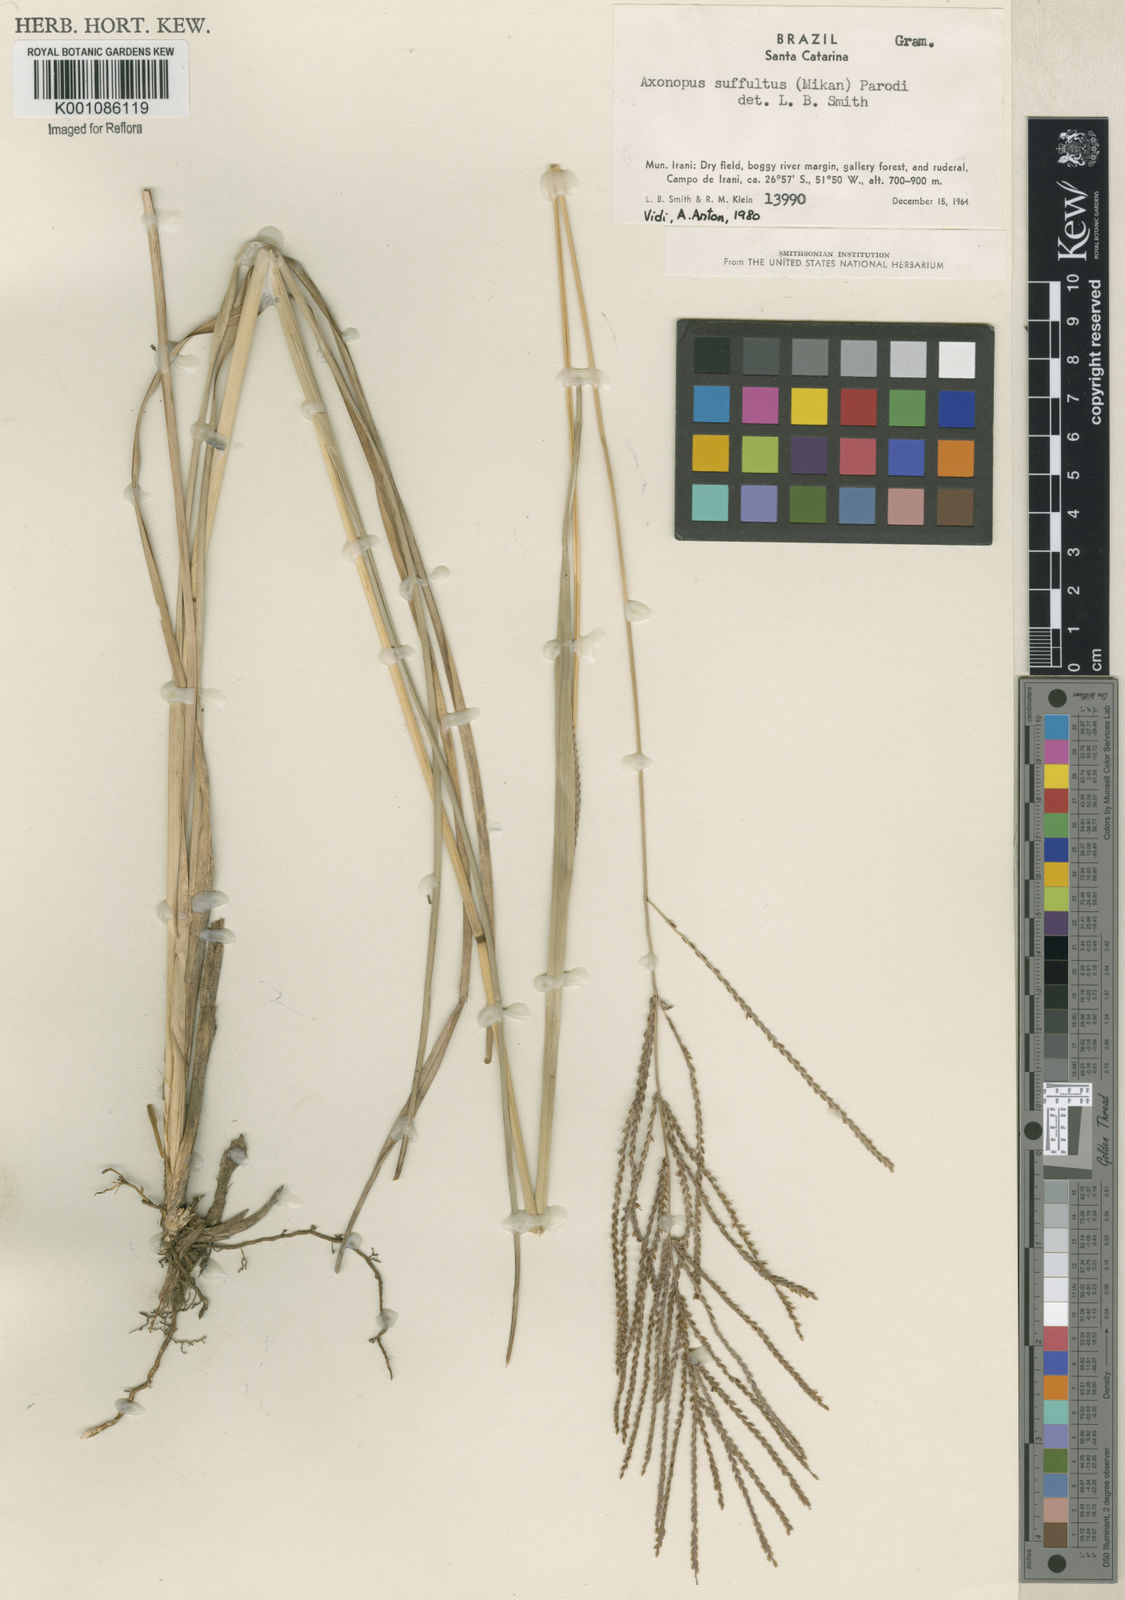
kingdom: Plantae
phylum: Tracheophyta
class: Liliopsida
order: Poales
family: Poaceae
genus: Axonopus
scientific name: Axonopus suffultus
